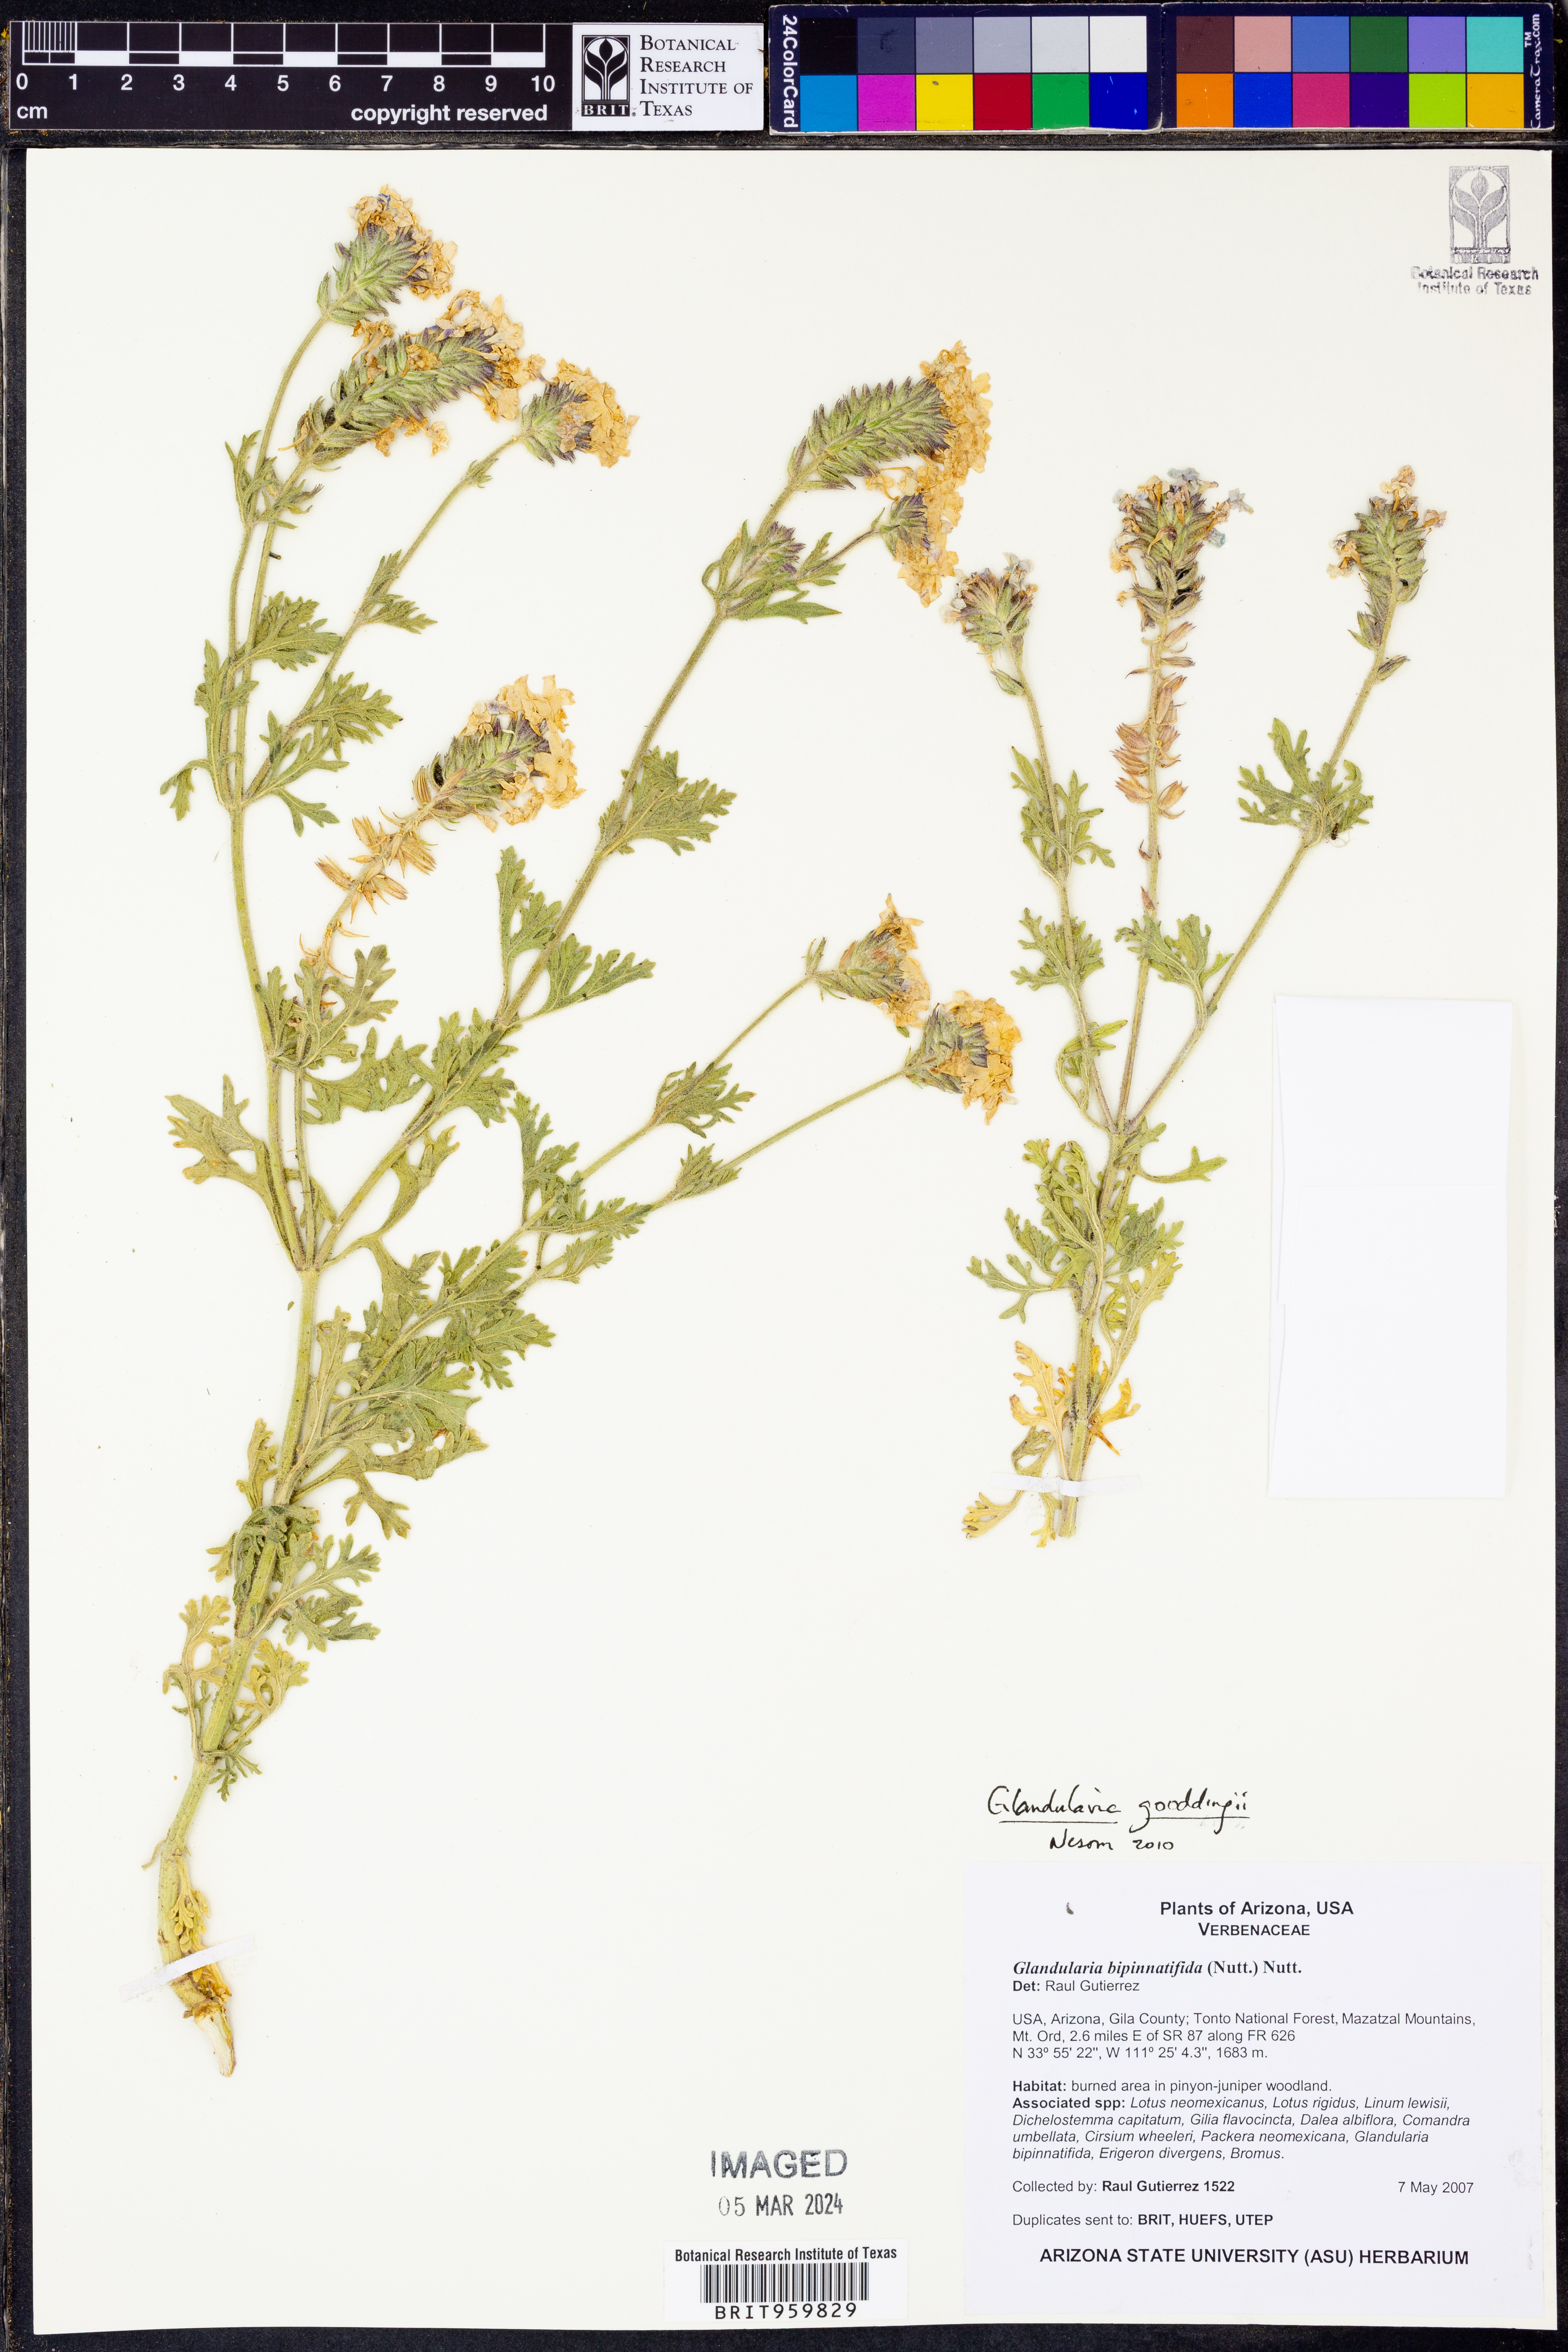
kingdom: Plantae
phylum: Tracheophyta
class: Magnoliopsida
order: Lamiales
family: Verbenaceae
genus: Verbena
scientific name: Verbena gooddingii
